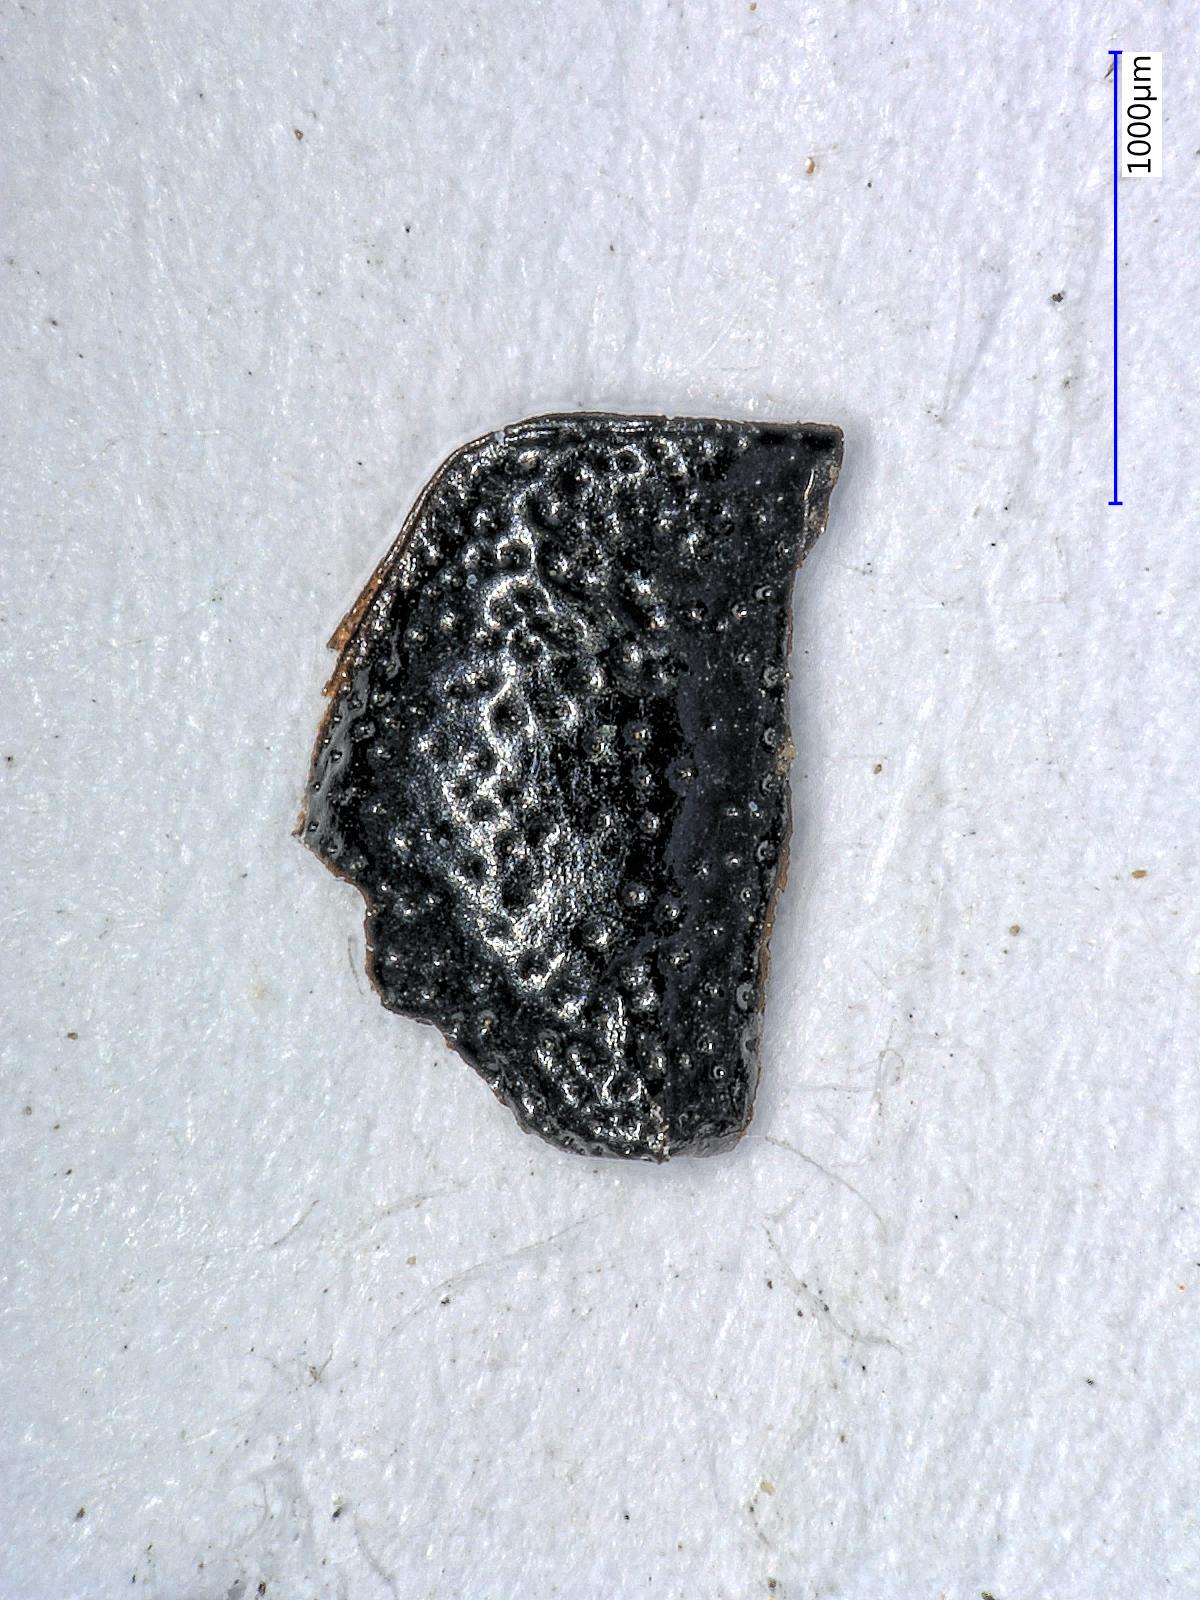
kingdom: Animalia
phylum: Arthropoda
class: Insecta
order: Coleoptera
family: Carabidae
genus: Dicheirus
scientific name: Dicheirus
